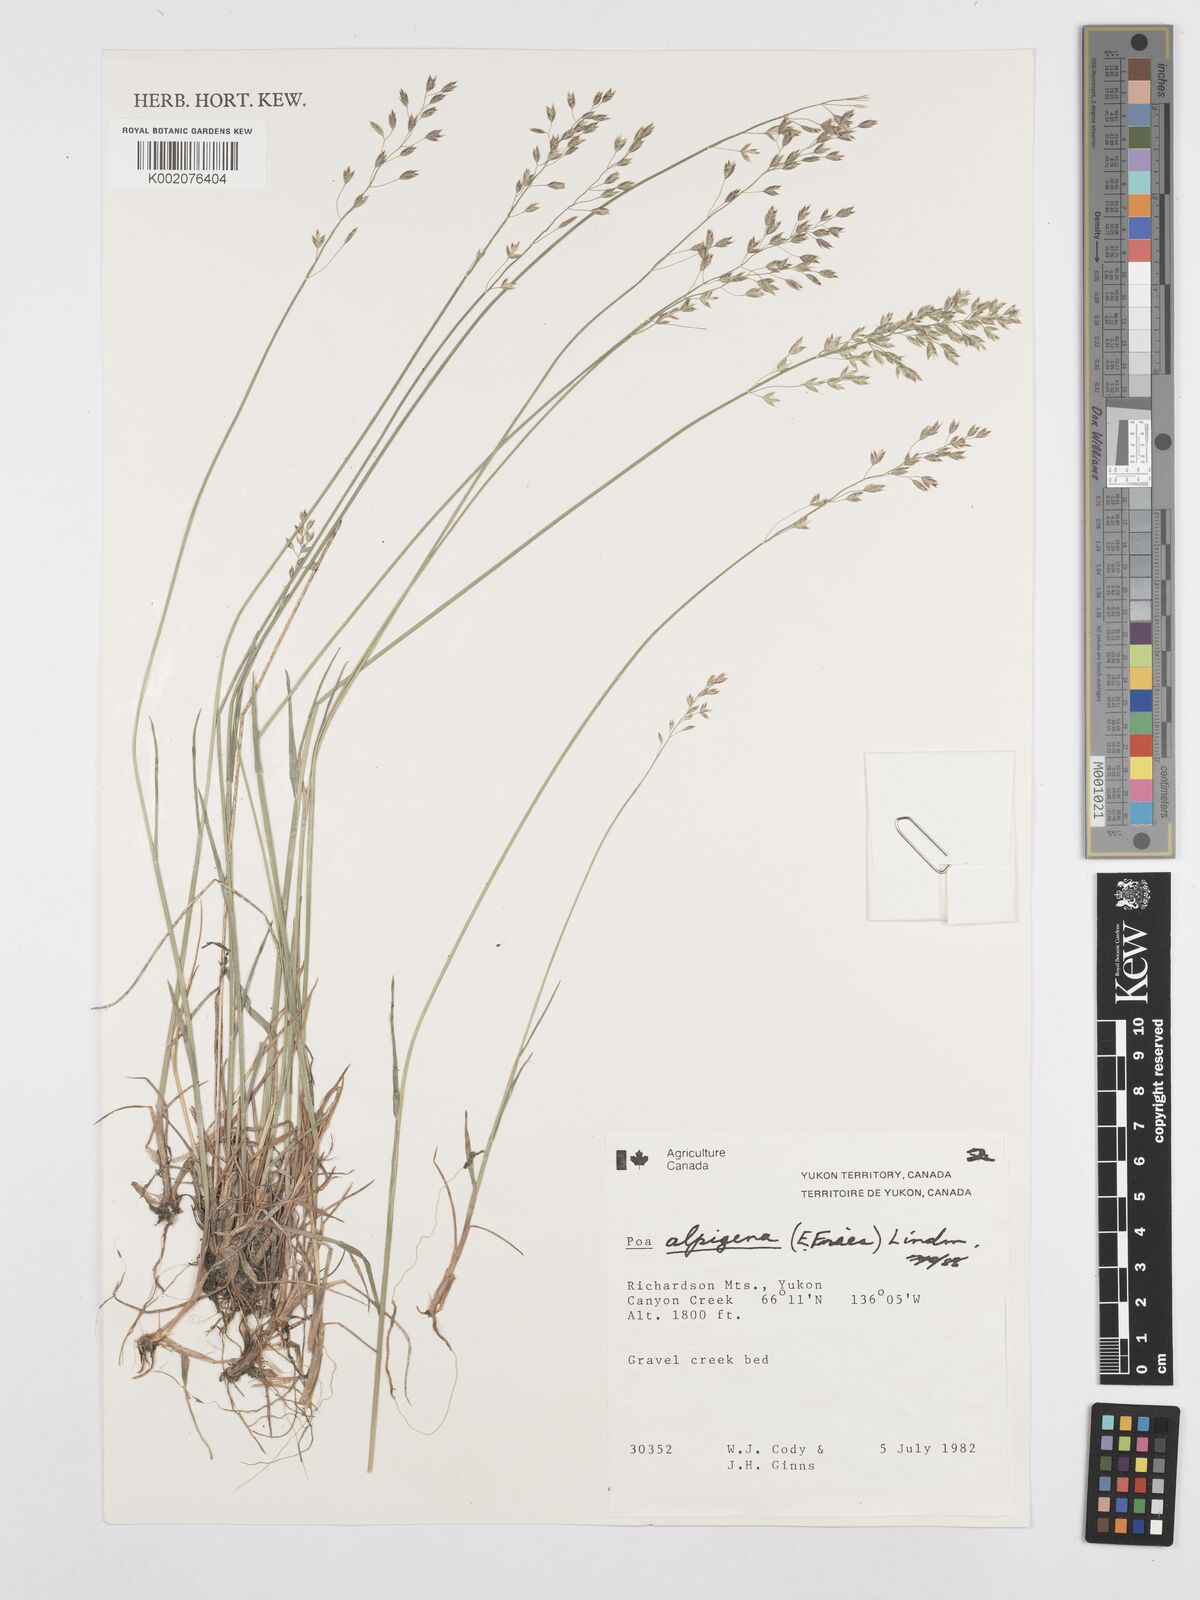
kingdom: Plantae
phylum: Tracheophyta
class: Liliopsida
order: Poales
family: Poaceae
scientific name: Poaceae
